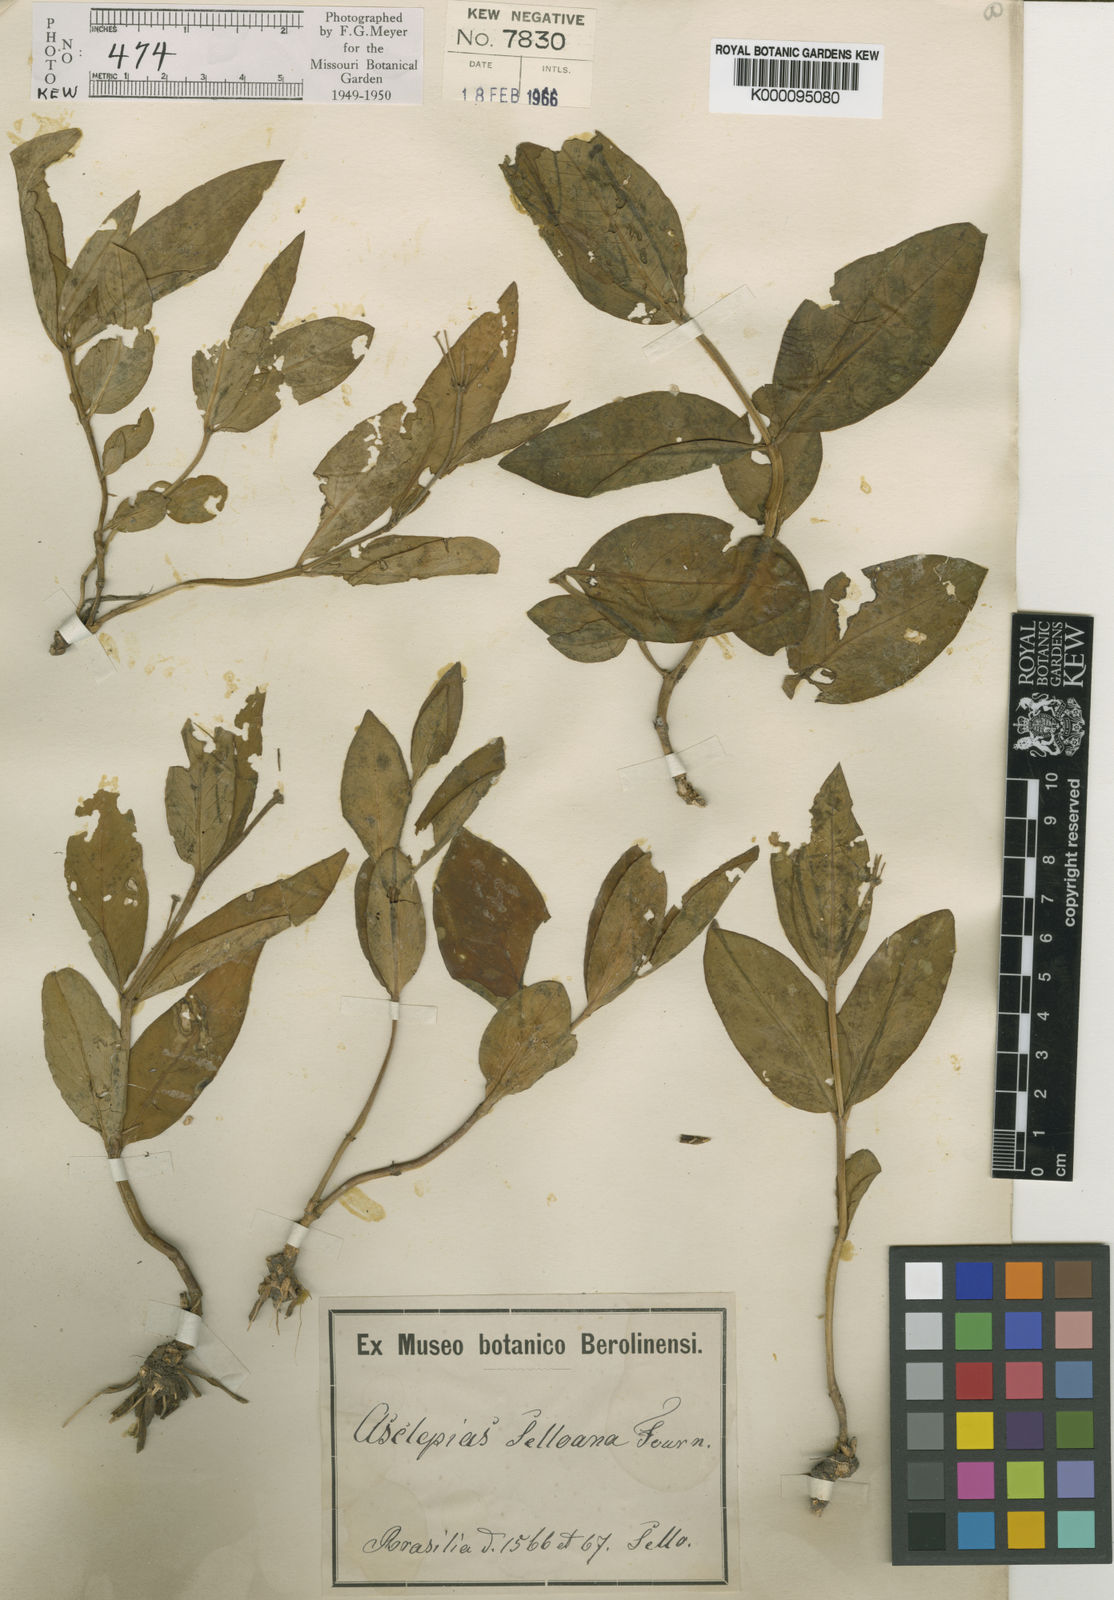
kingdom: Plantae
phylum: Tracheophyta
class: Magnoliopsida
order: Gentianales
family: Apocynaceae
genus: Asclepias
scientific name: Asclepias mellodora
